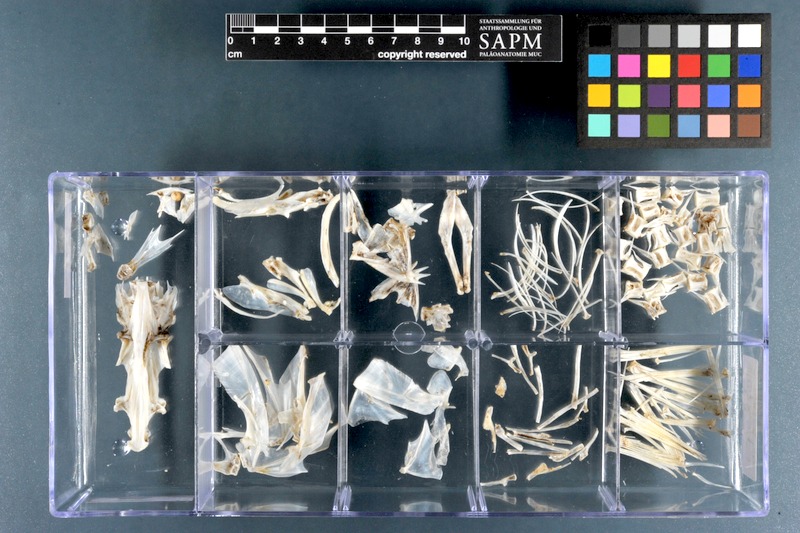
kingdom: Animalia
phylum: Chordata
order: Scorpaeniformes
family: Platycephalidae
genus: Platycephalus
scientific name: Platycephalus indicus
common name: Bartail flathead
